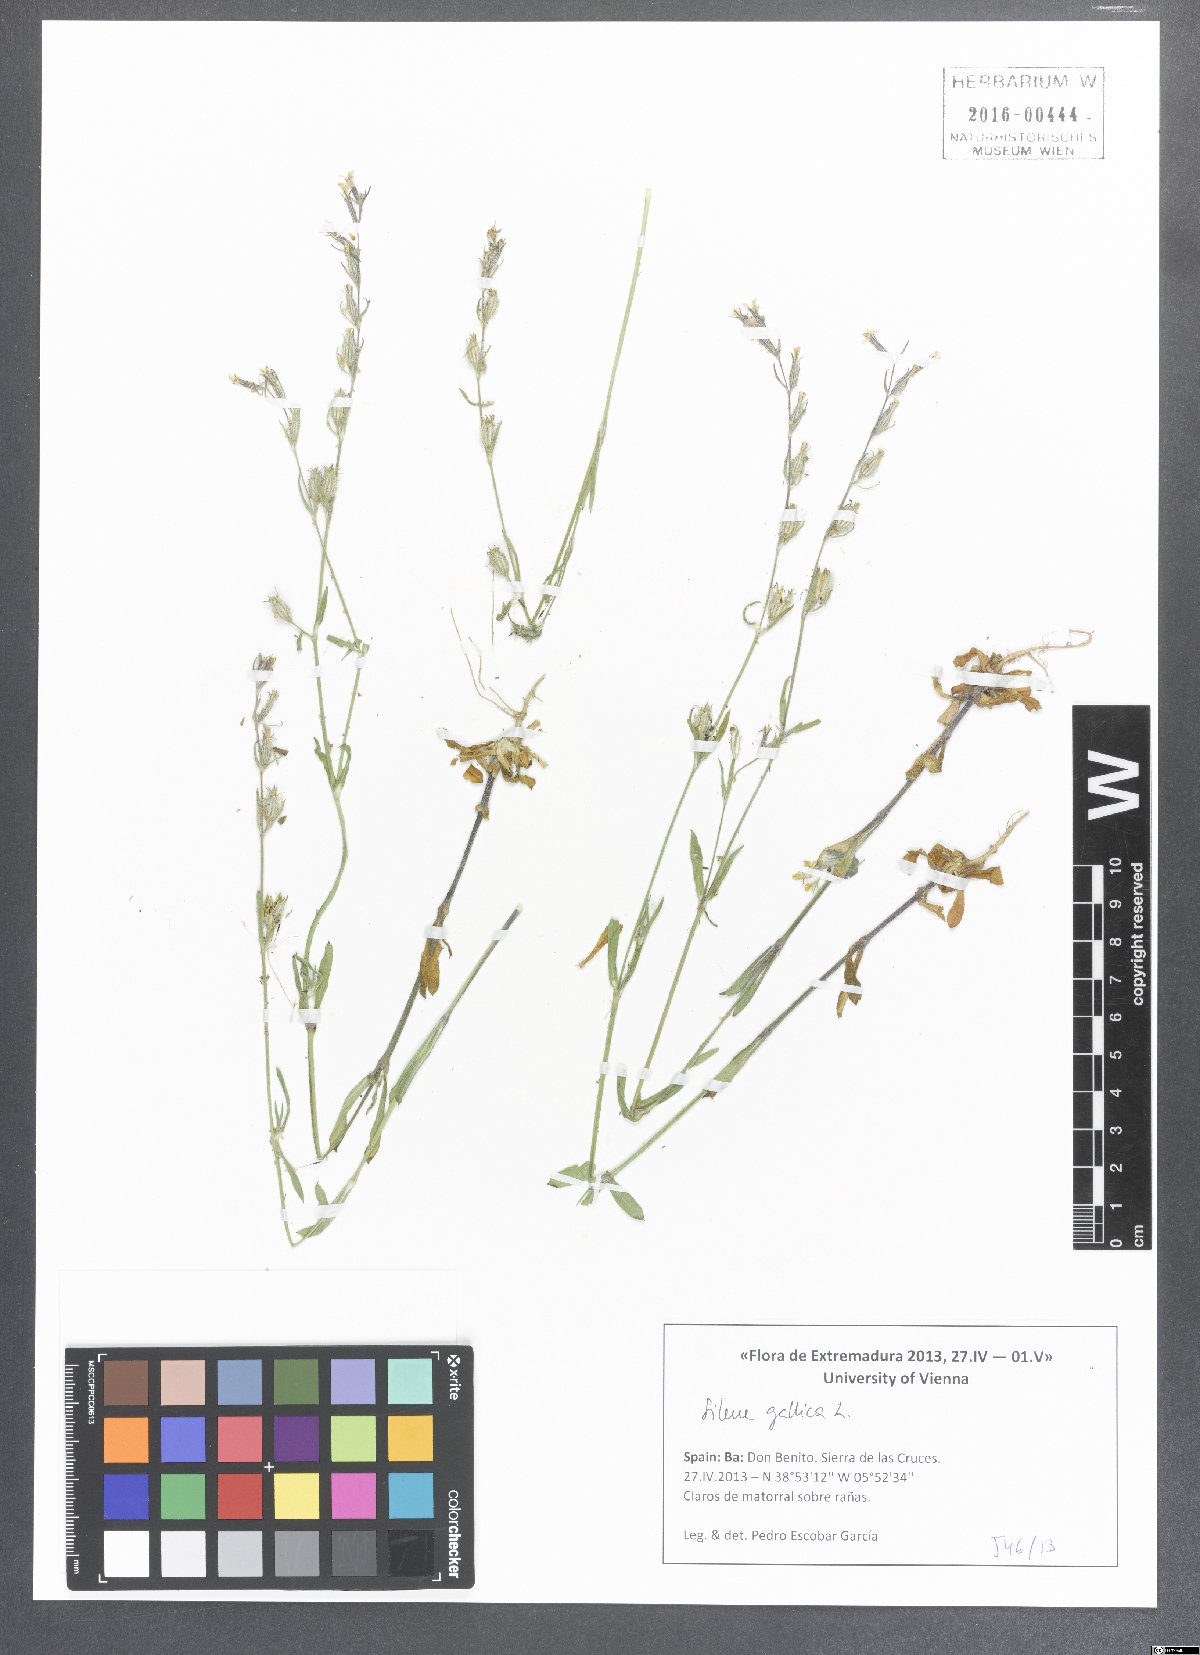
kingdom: Plantae
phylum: Tracheophyta
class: Magnoliopsida
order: Caryophyllales
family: Caryophyllaceae
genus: Silene
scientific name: Silene gallica
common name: Small-flowered catchfly
